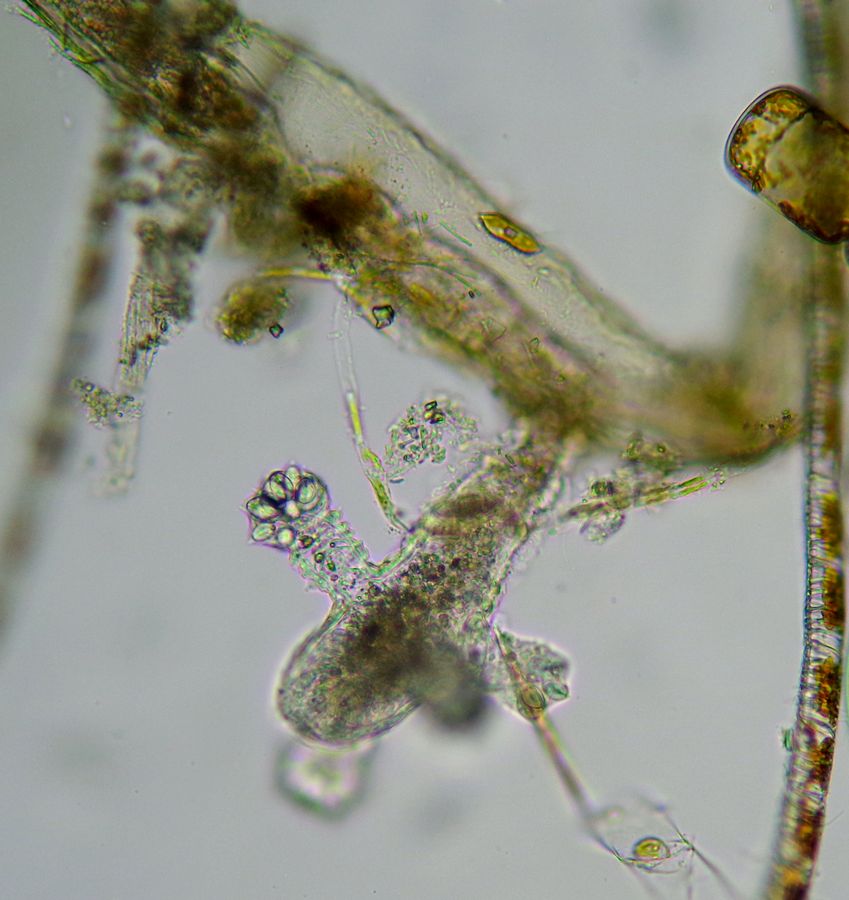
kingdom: Animalia
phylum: Cnidaria
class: Hydrozoa
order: Anthoathecata
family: Corynidae
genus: Sarsia
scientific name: Sarsia tubulosa
